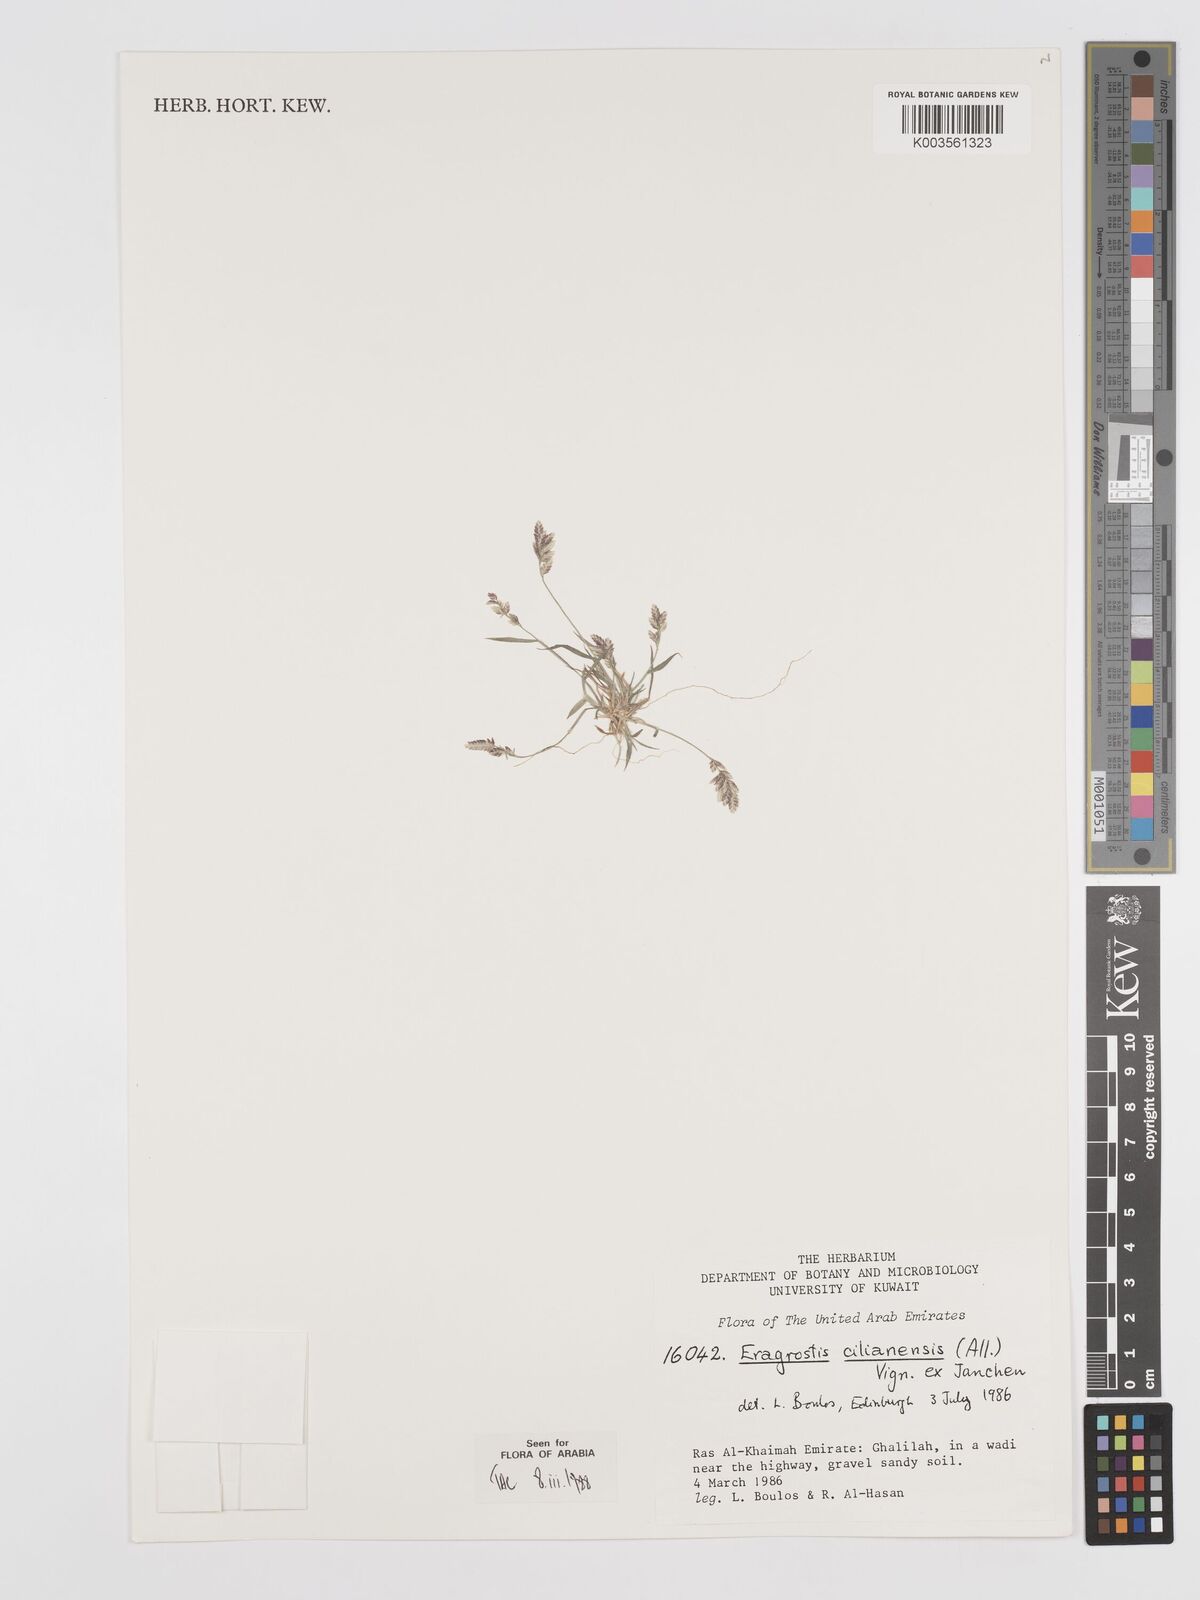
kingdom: Plantae
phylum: Tracheophyta
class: Liliopsida
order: Poales
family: Poaceae
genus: Eragrostis
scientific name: Eragrostis cilianensis
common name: Stinkgrass
